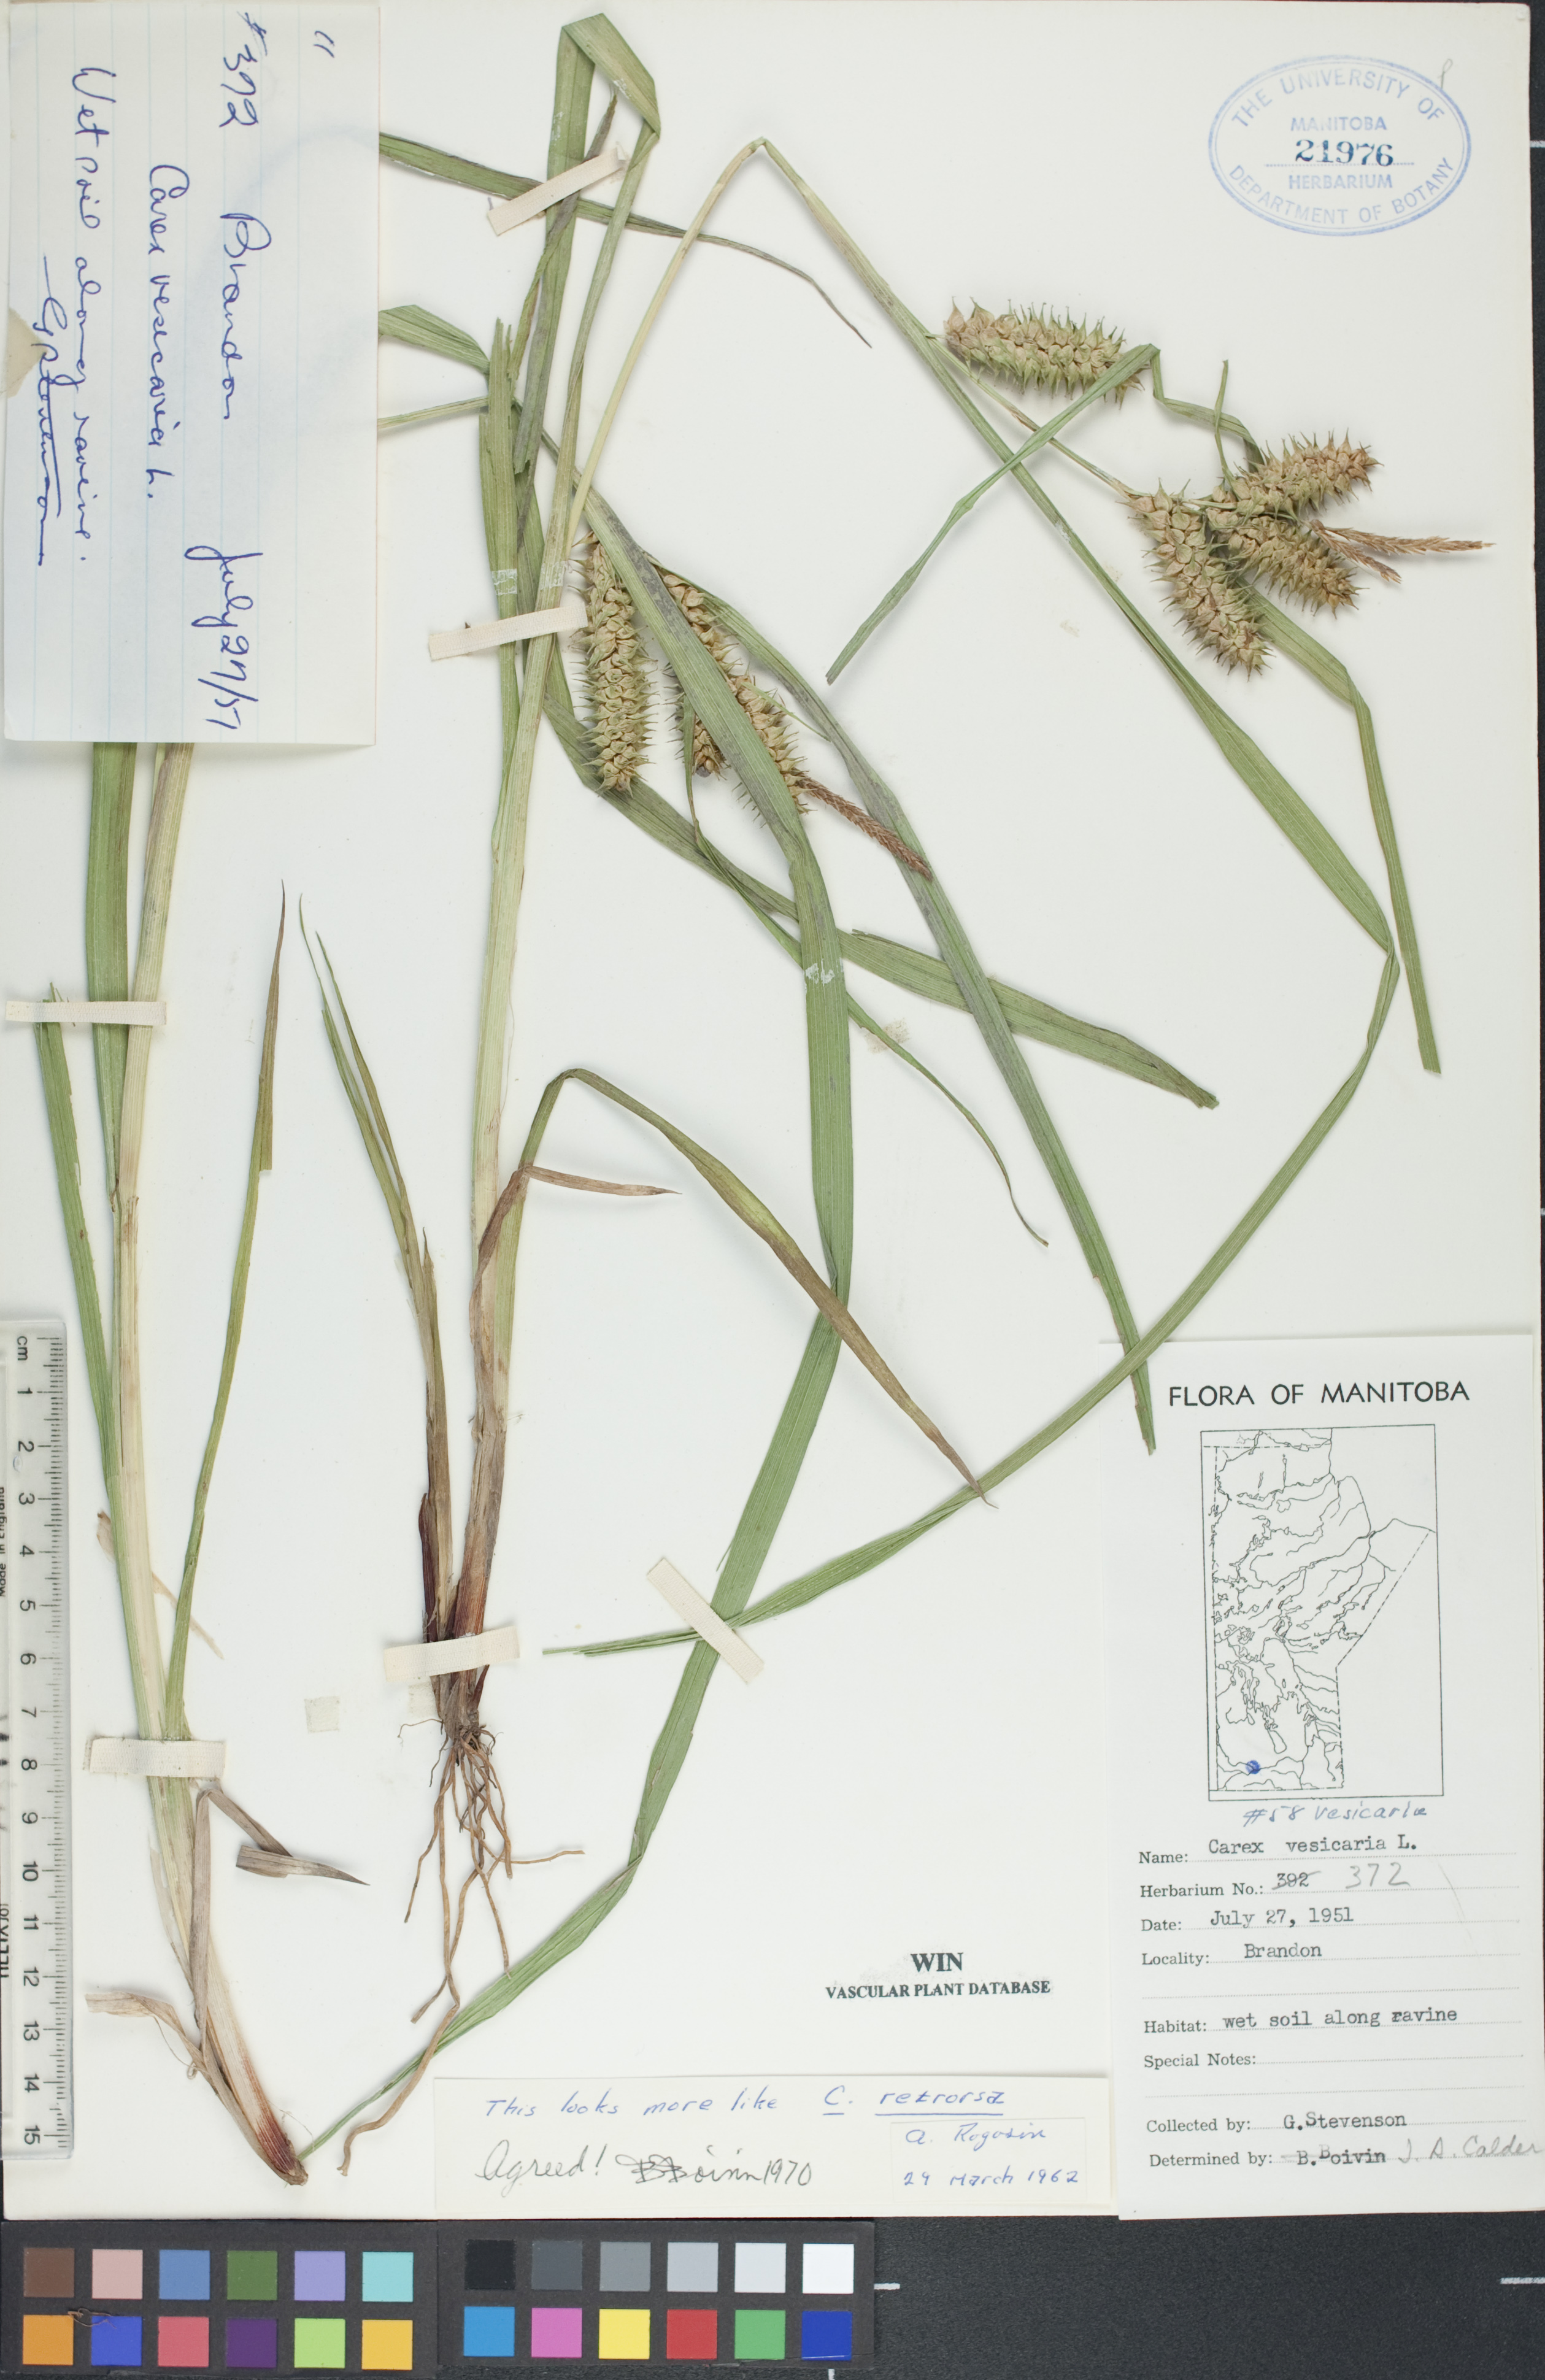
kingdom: Plantae
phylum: Tracheophyta
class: Liliopsida
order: Poales
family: Cyperaceae
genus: Carex
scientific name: Carex retrorsa
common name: Knot-sheath sedge
